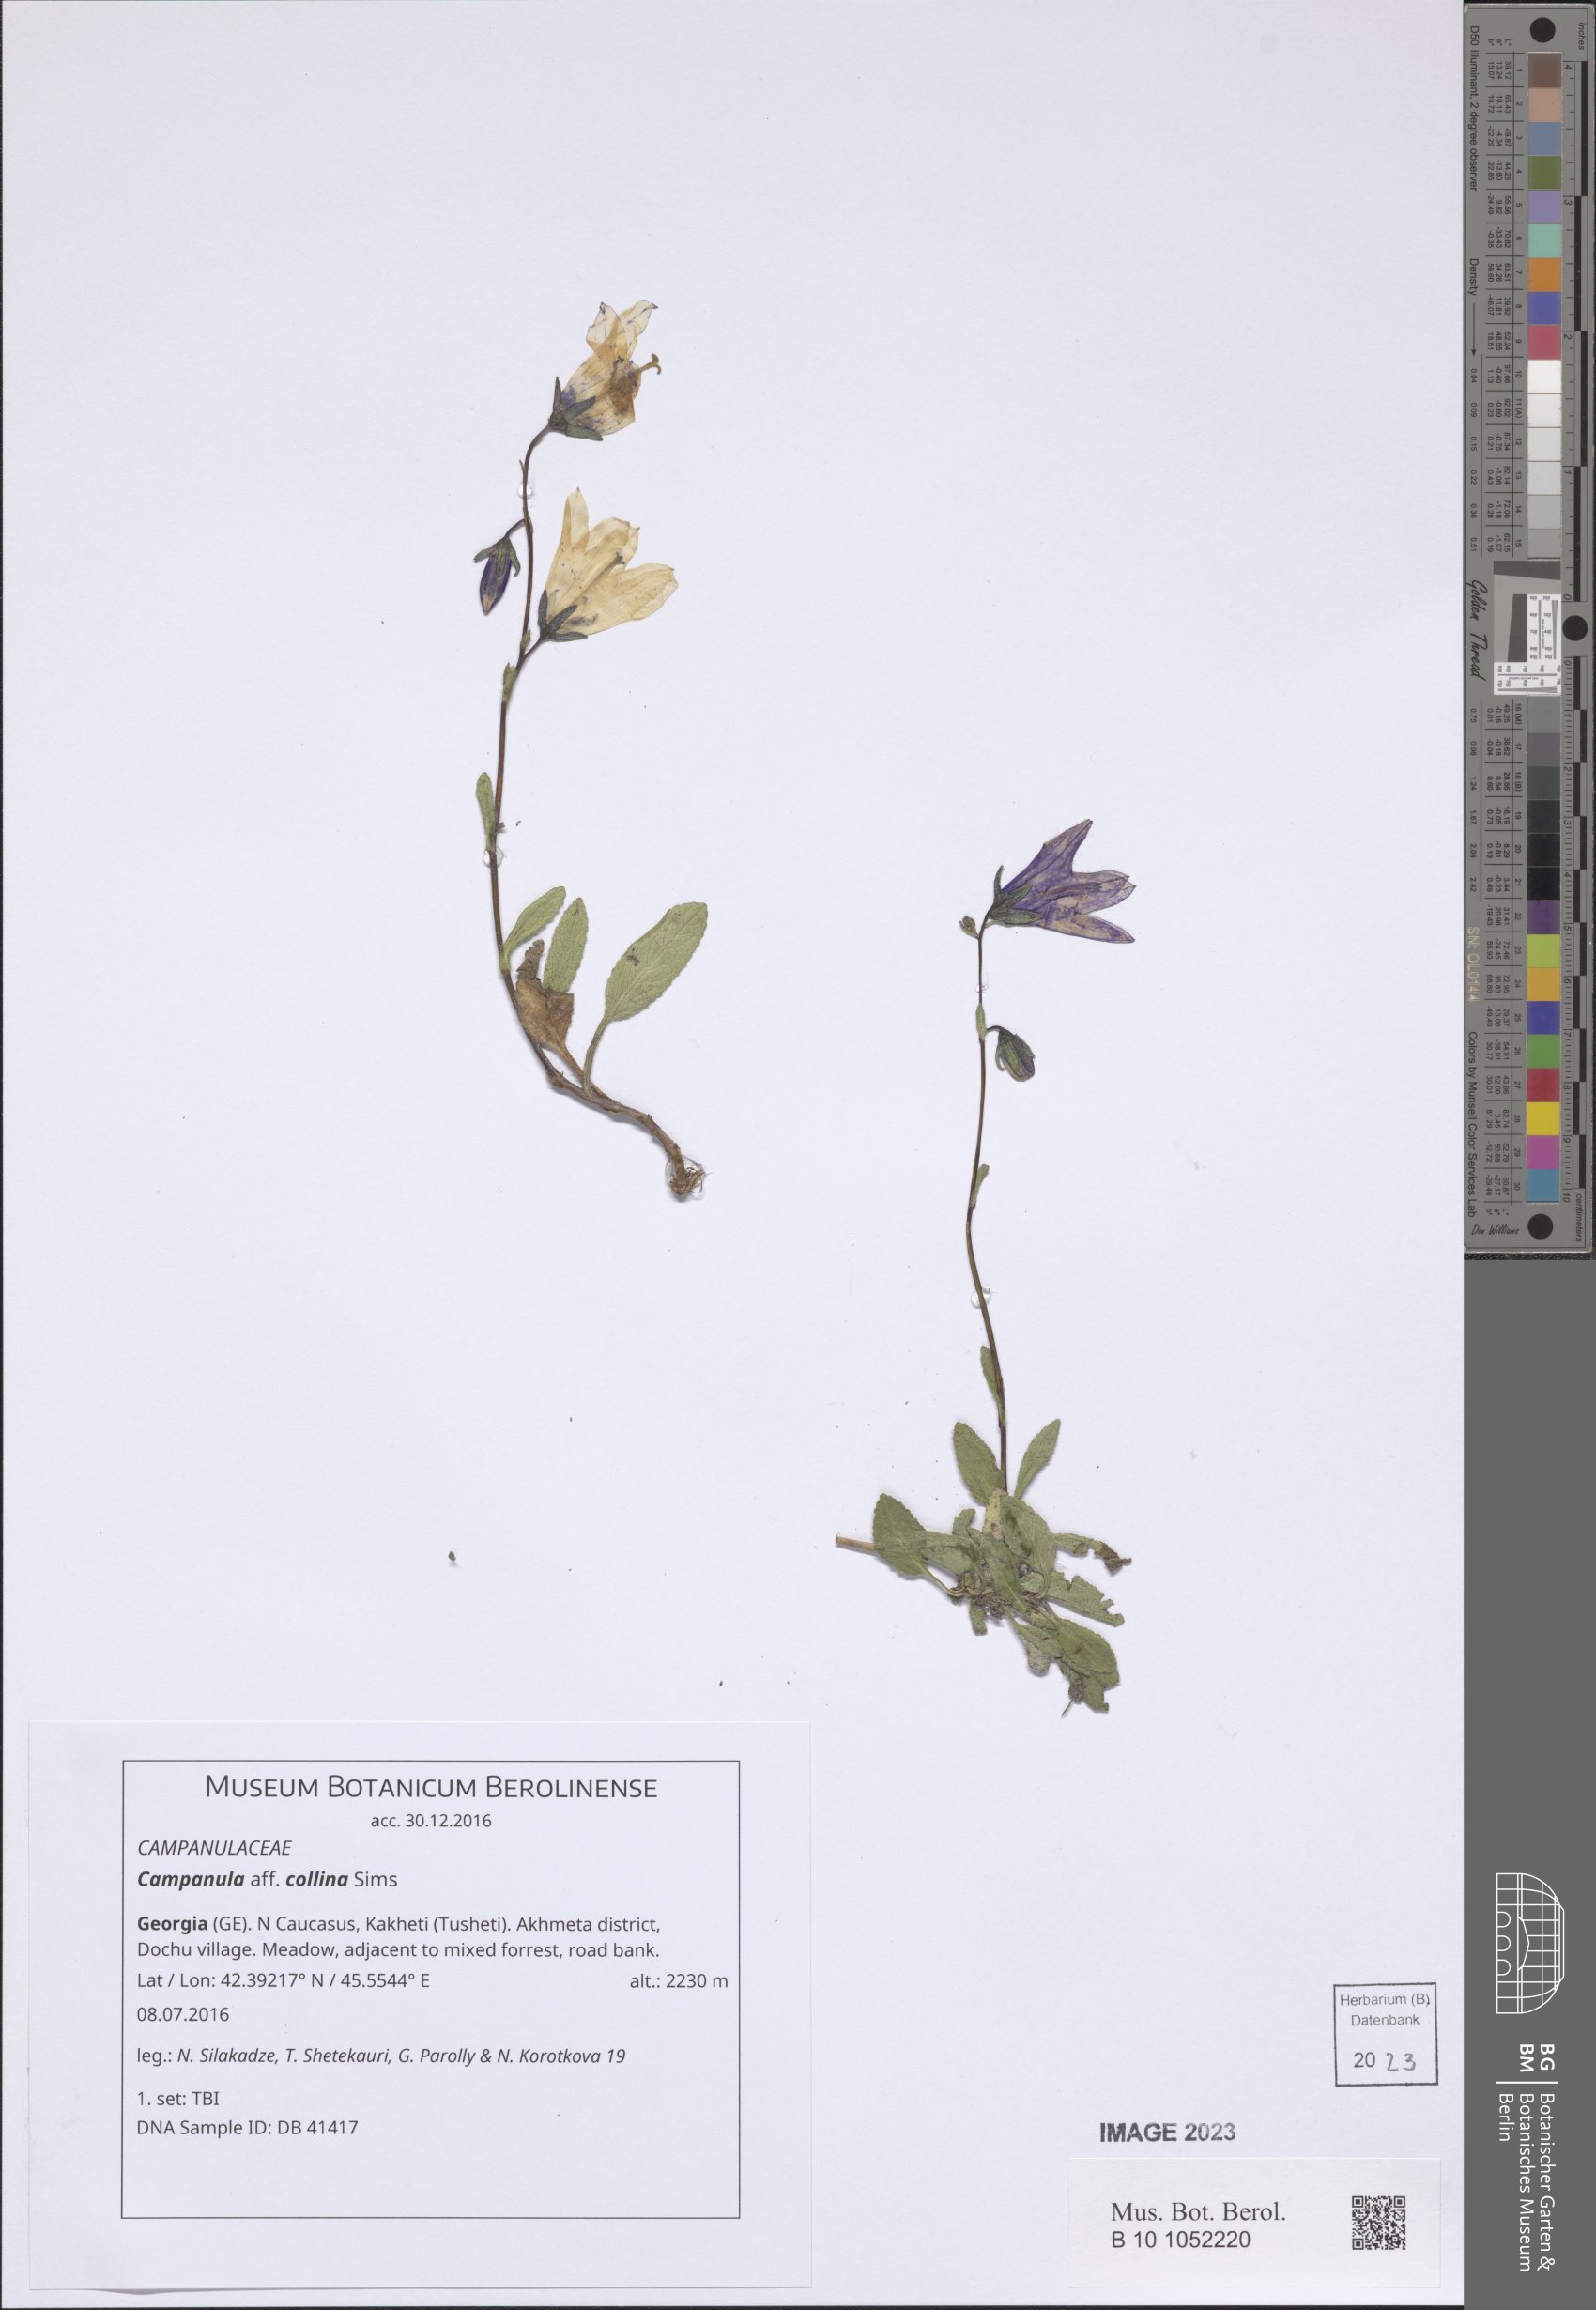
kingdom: Plantae
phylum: Tracheophyta
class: Magnoliopsida
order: Asterales
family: Campanulaceae
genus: Campanula
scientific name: Campanula collina
